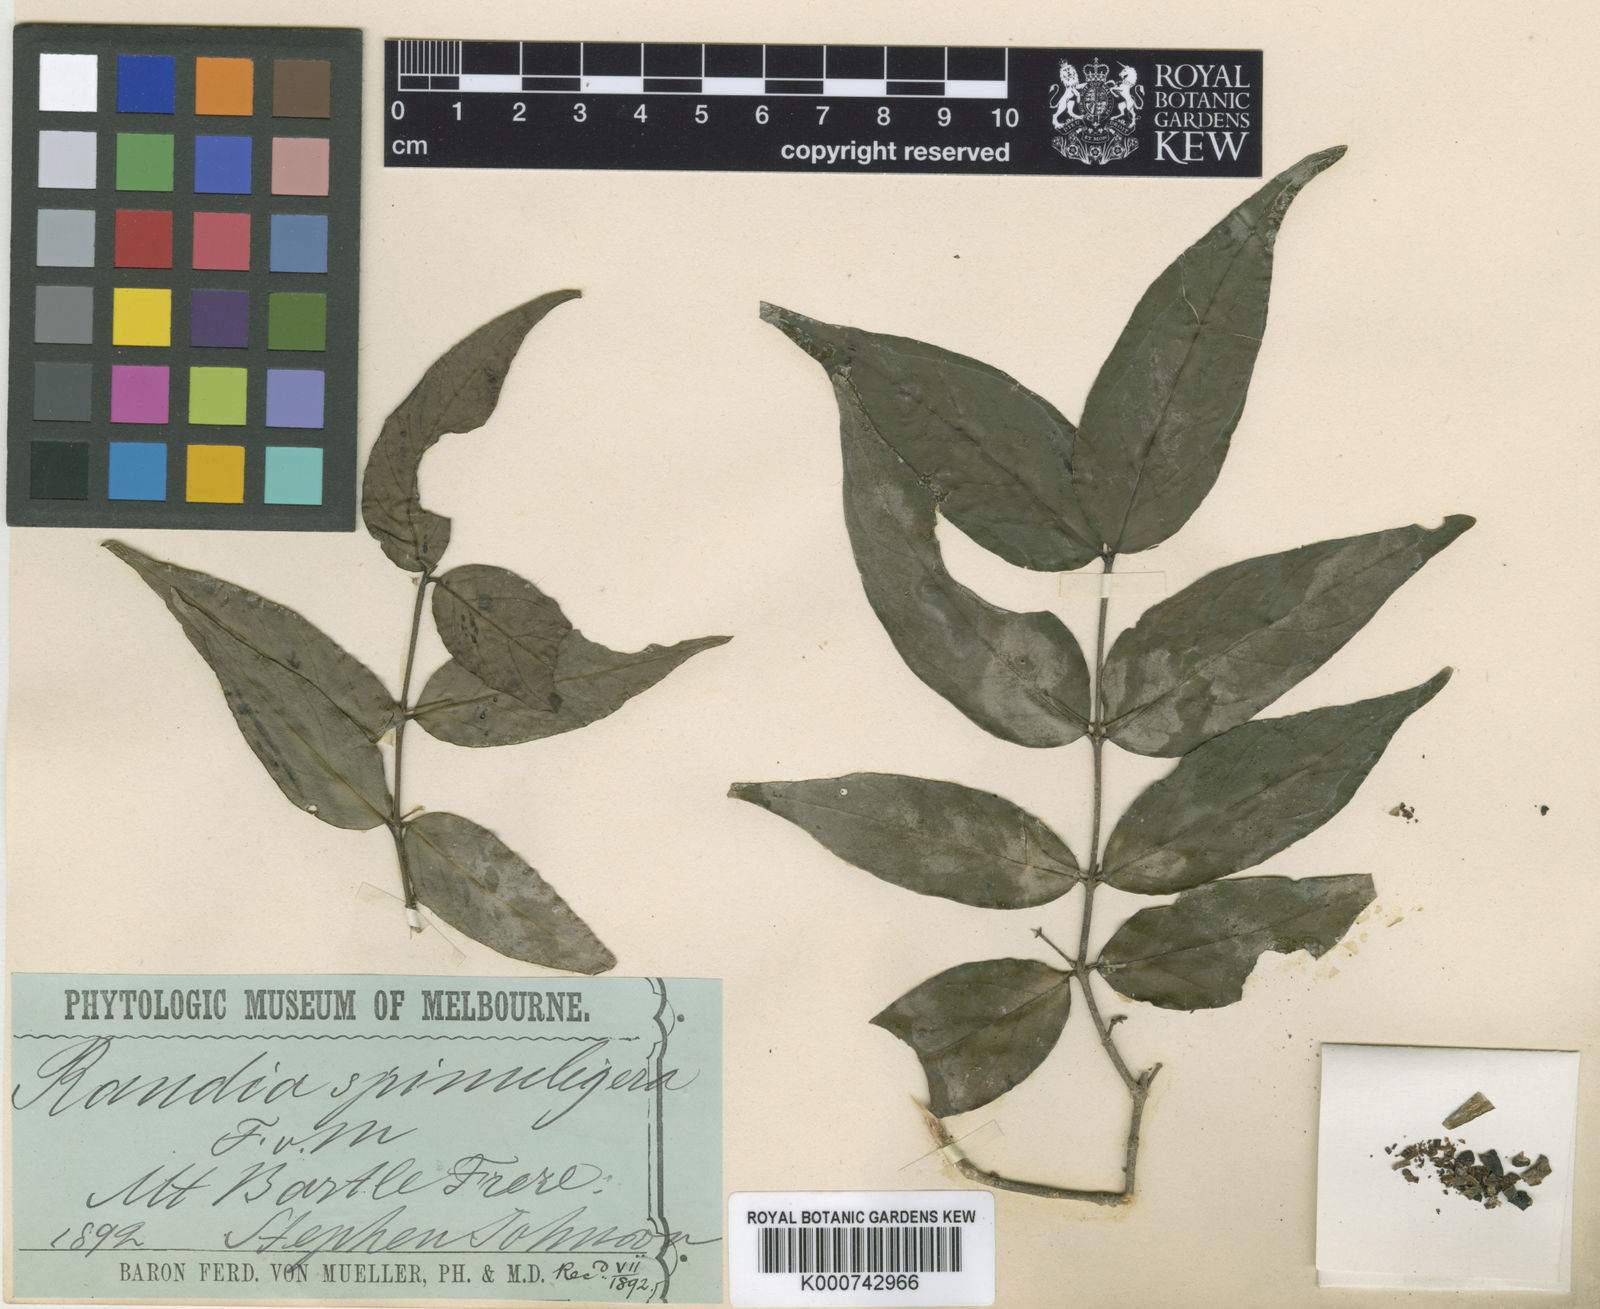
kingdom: Plantae
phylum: Tracheophyta
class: Magnoliopsida
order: Gentianales
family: Rubiaceae
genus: Randia
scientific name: Randia spinuligera
